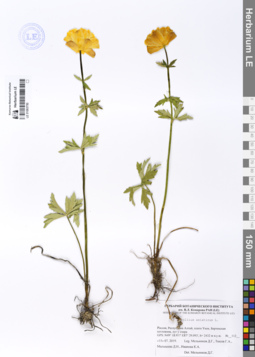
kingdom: Plantae
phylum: Tracheophyta
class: Magnoliopsida
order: Ranunculales
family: Ranunculaceae
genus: Trollius
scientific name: Trollius asiaticus
